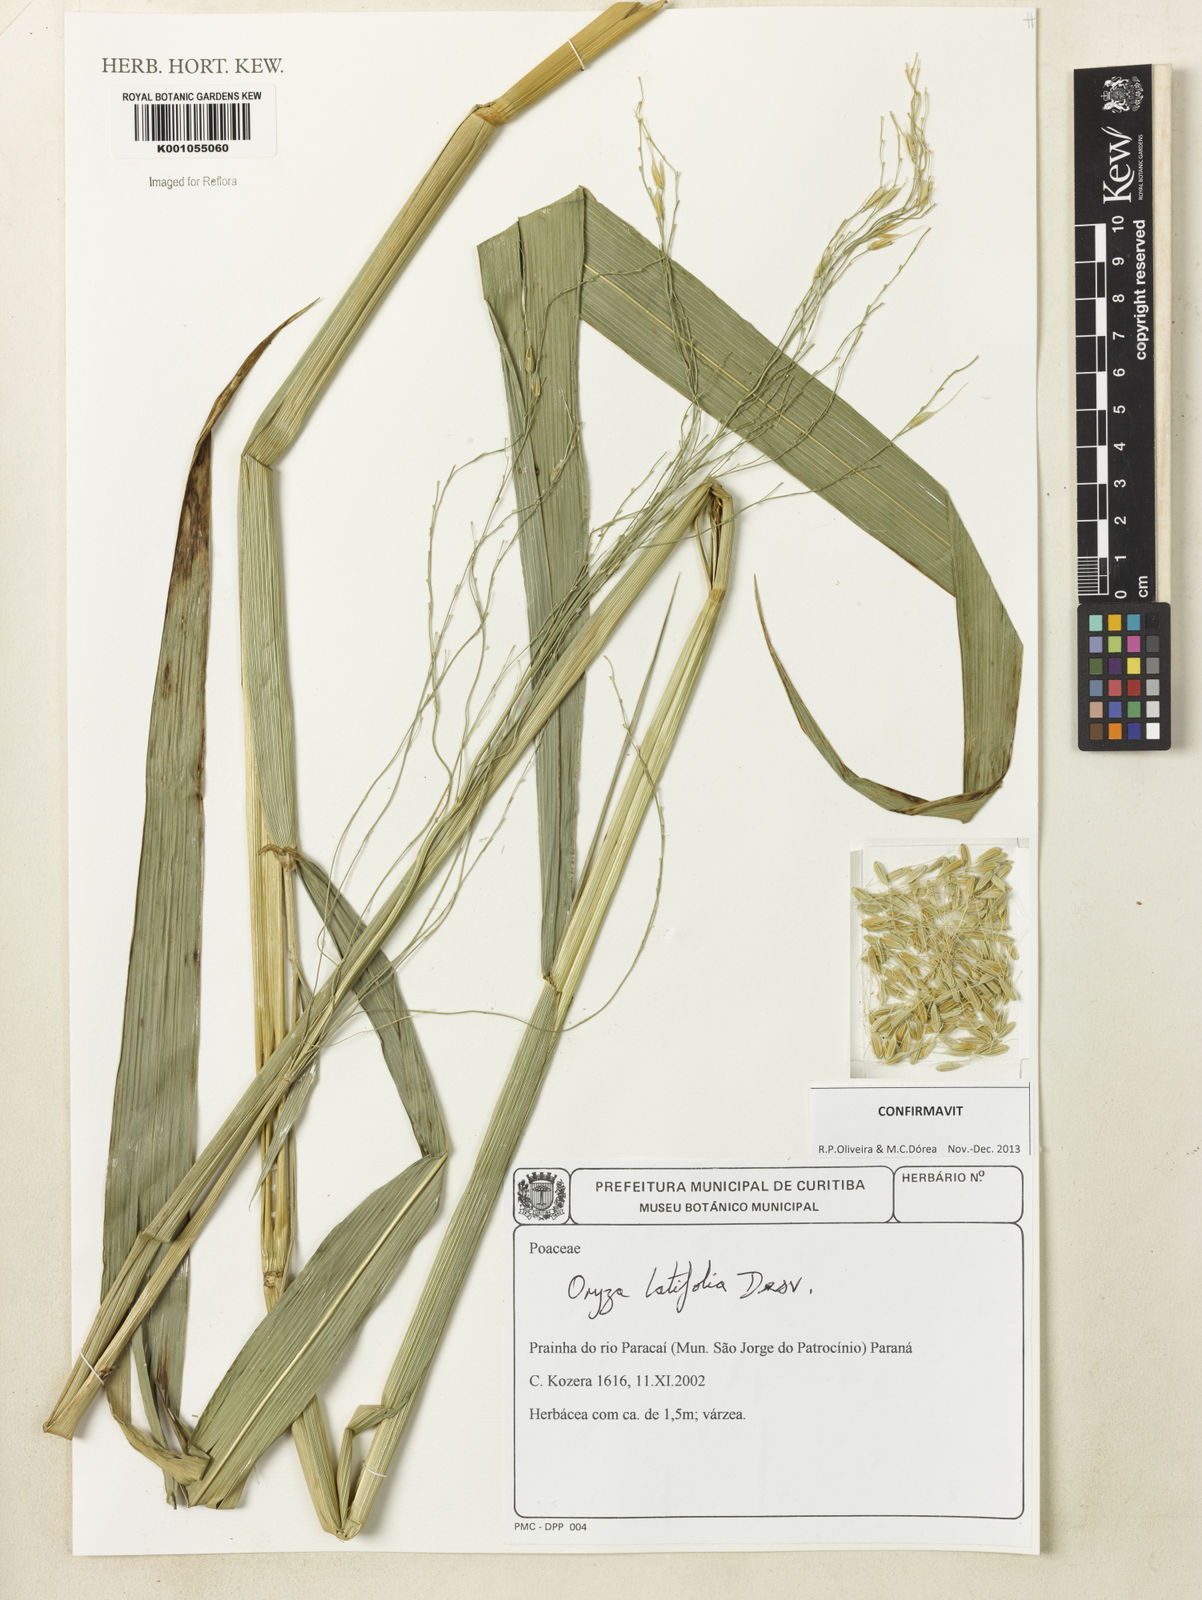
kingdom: Plantae
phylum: Tracheophyta
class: Liliopsida
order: Poales
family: Poaceae
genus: Oryza
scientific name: Oryza latifolia
